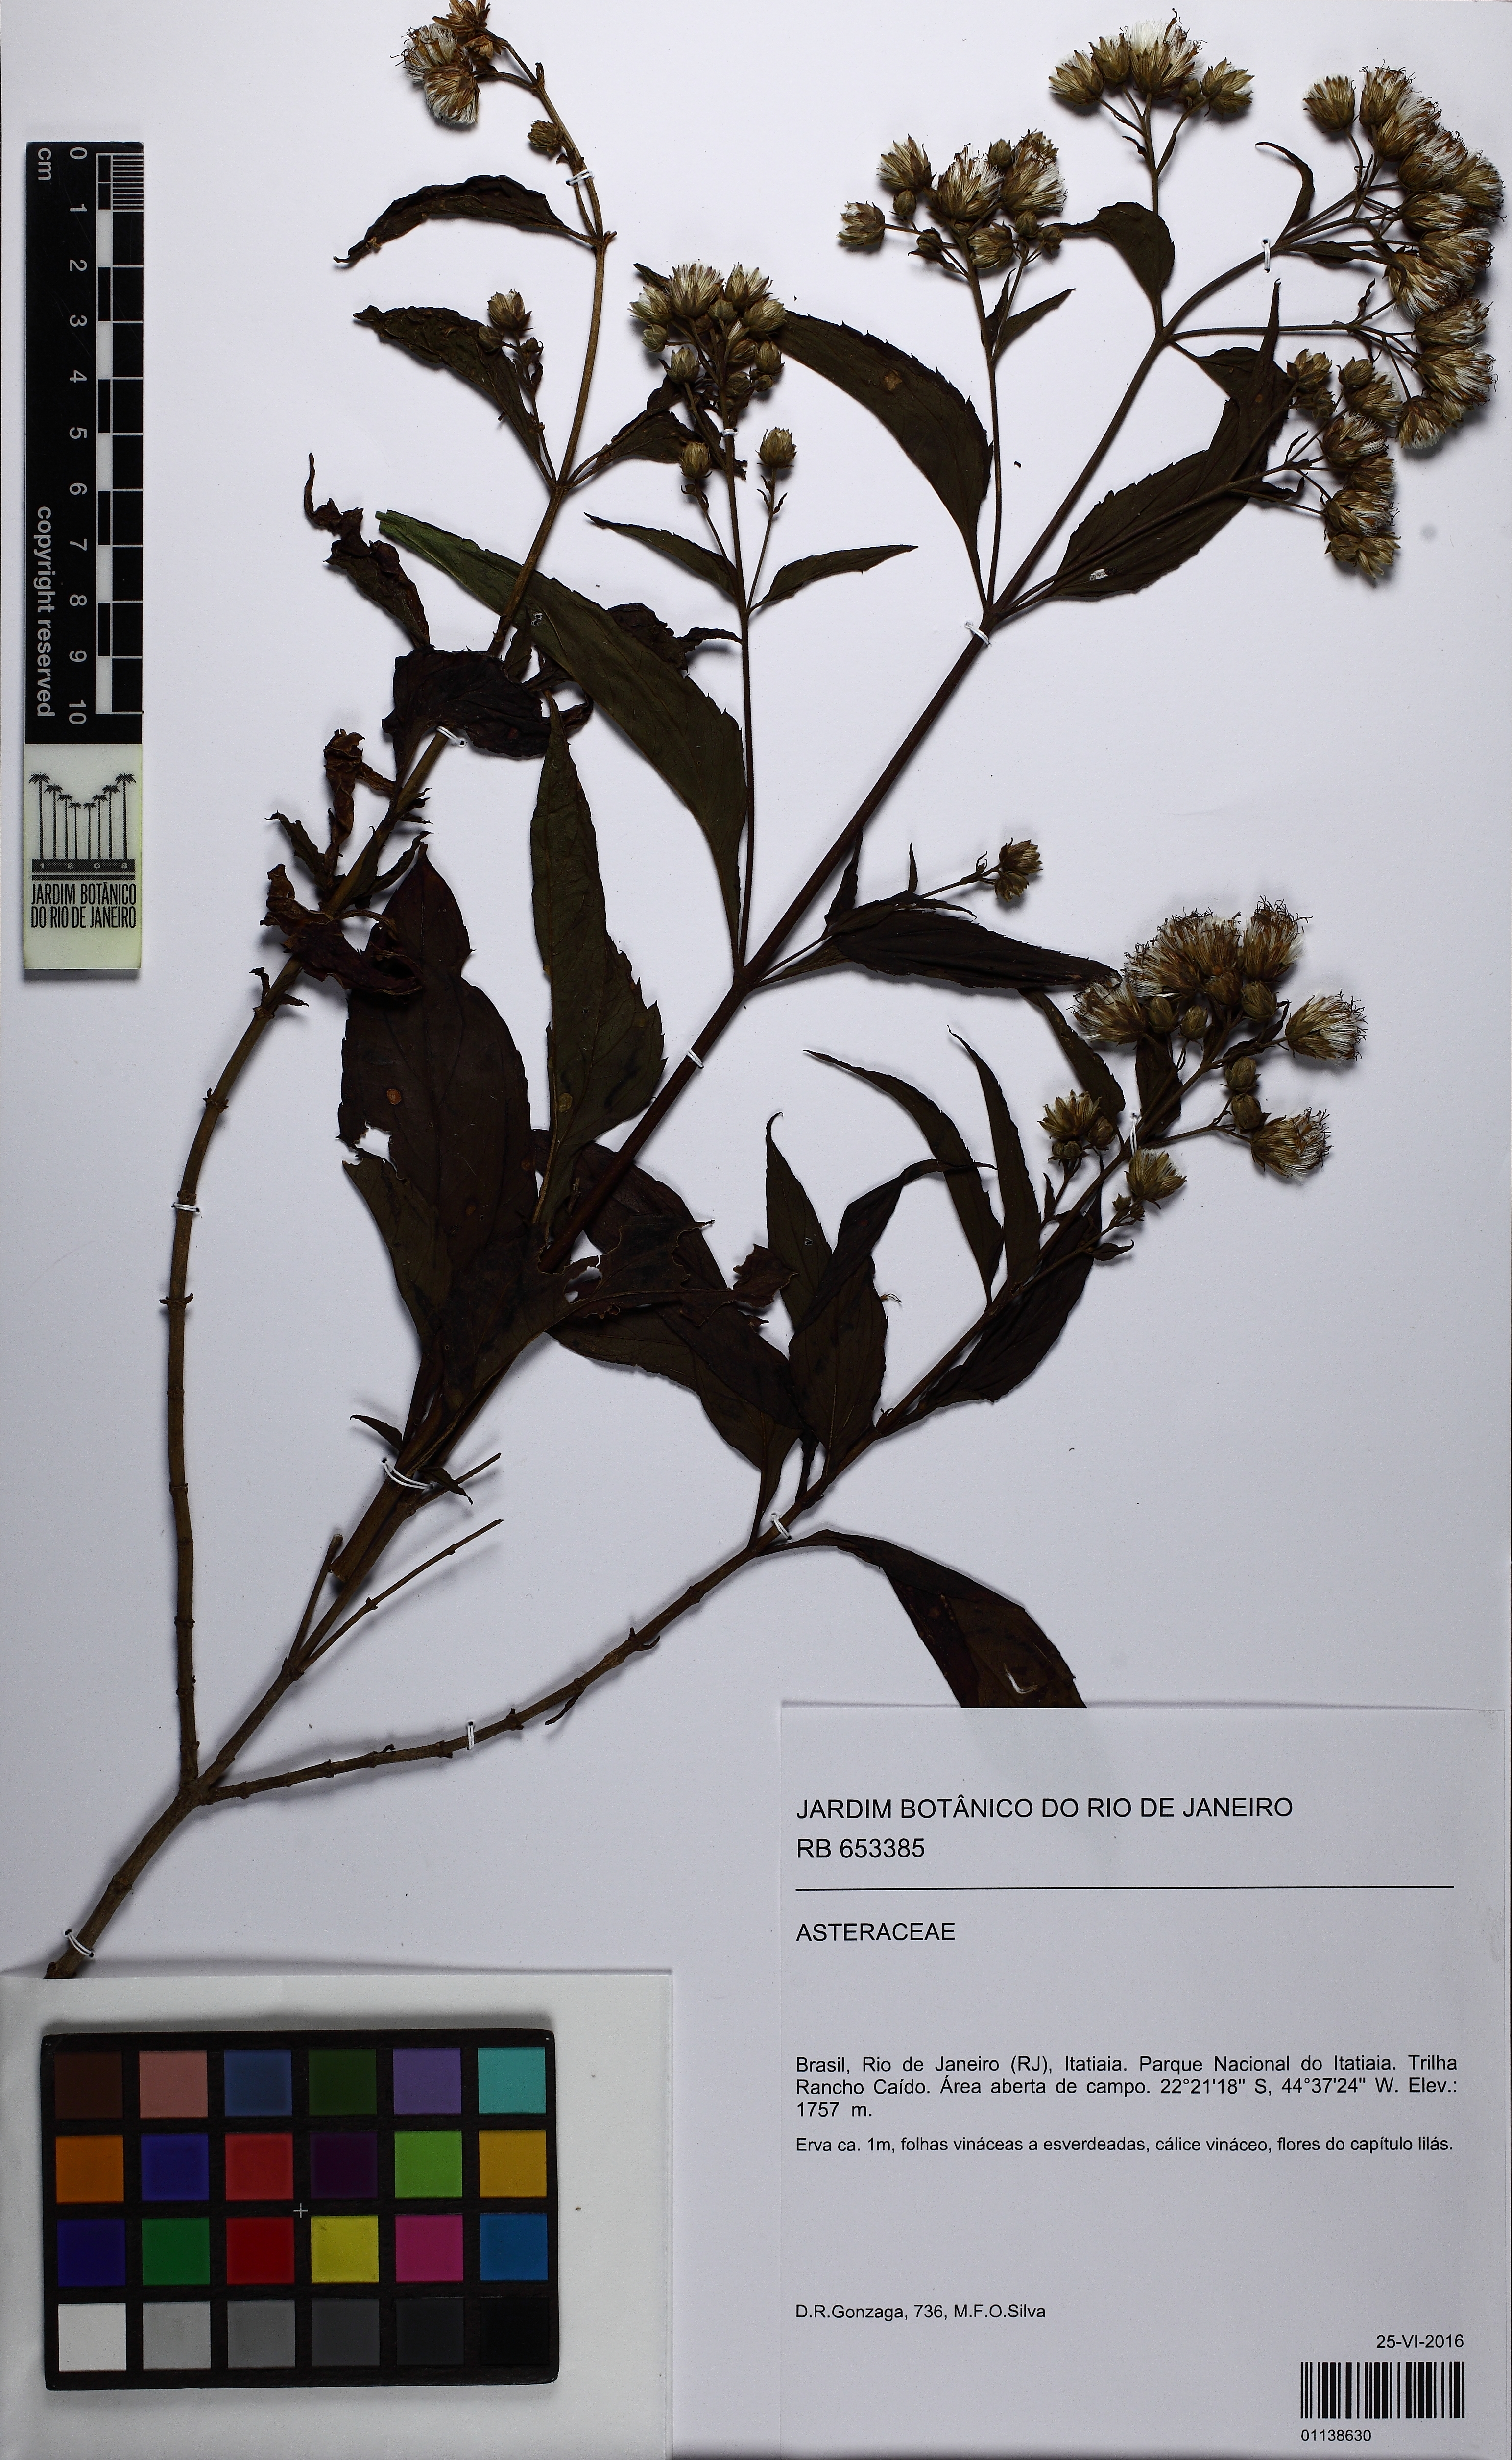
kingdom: Plantae
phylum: Tracheophyta
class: Magnoliopsida
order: Asterales
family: Asteraceae
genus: Heterocondylus
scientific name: Heterocondylus
